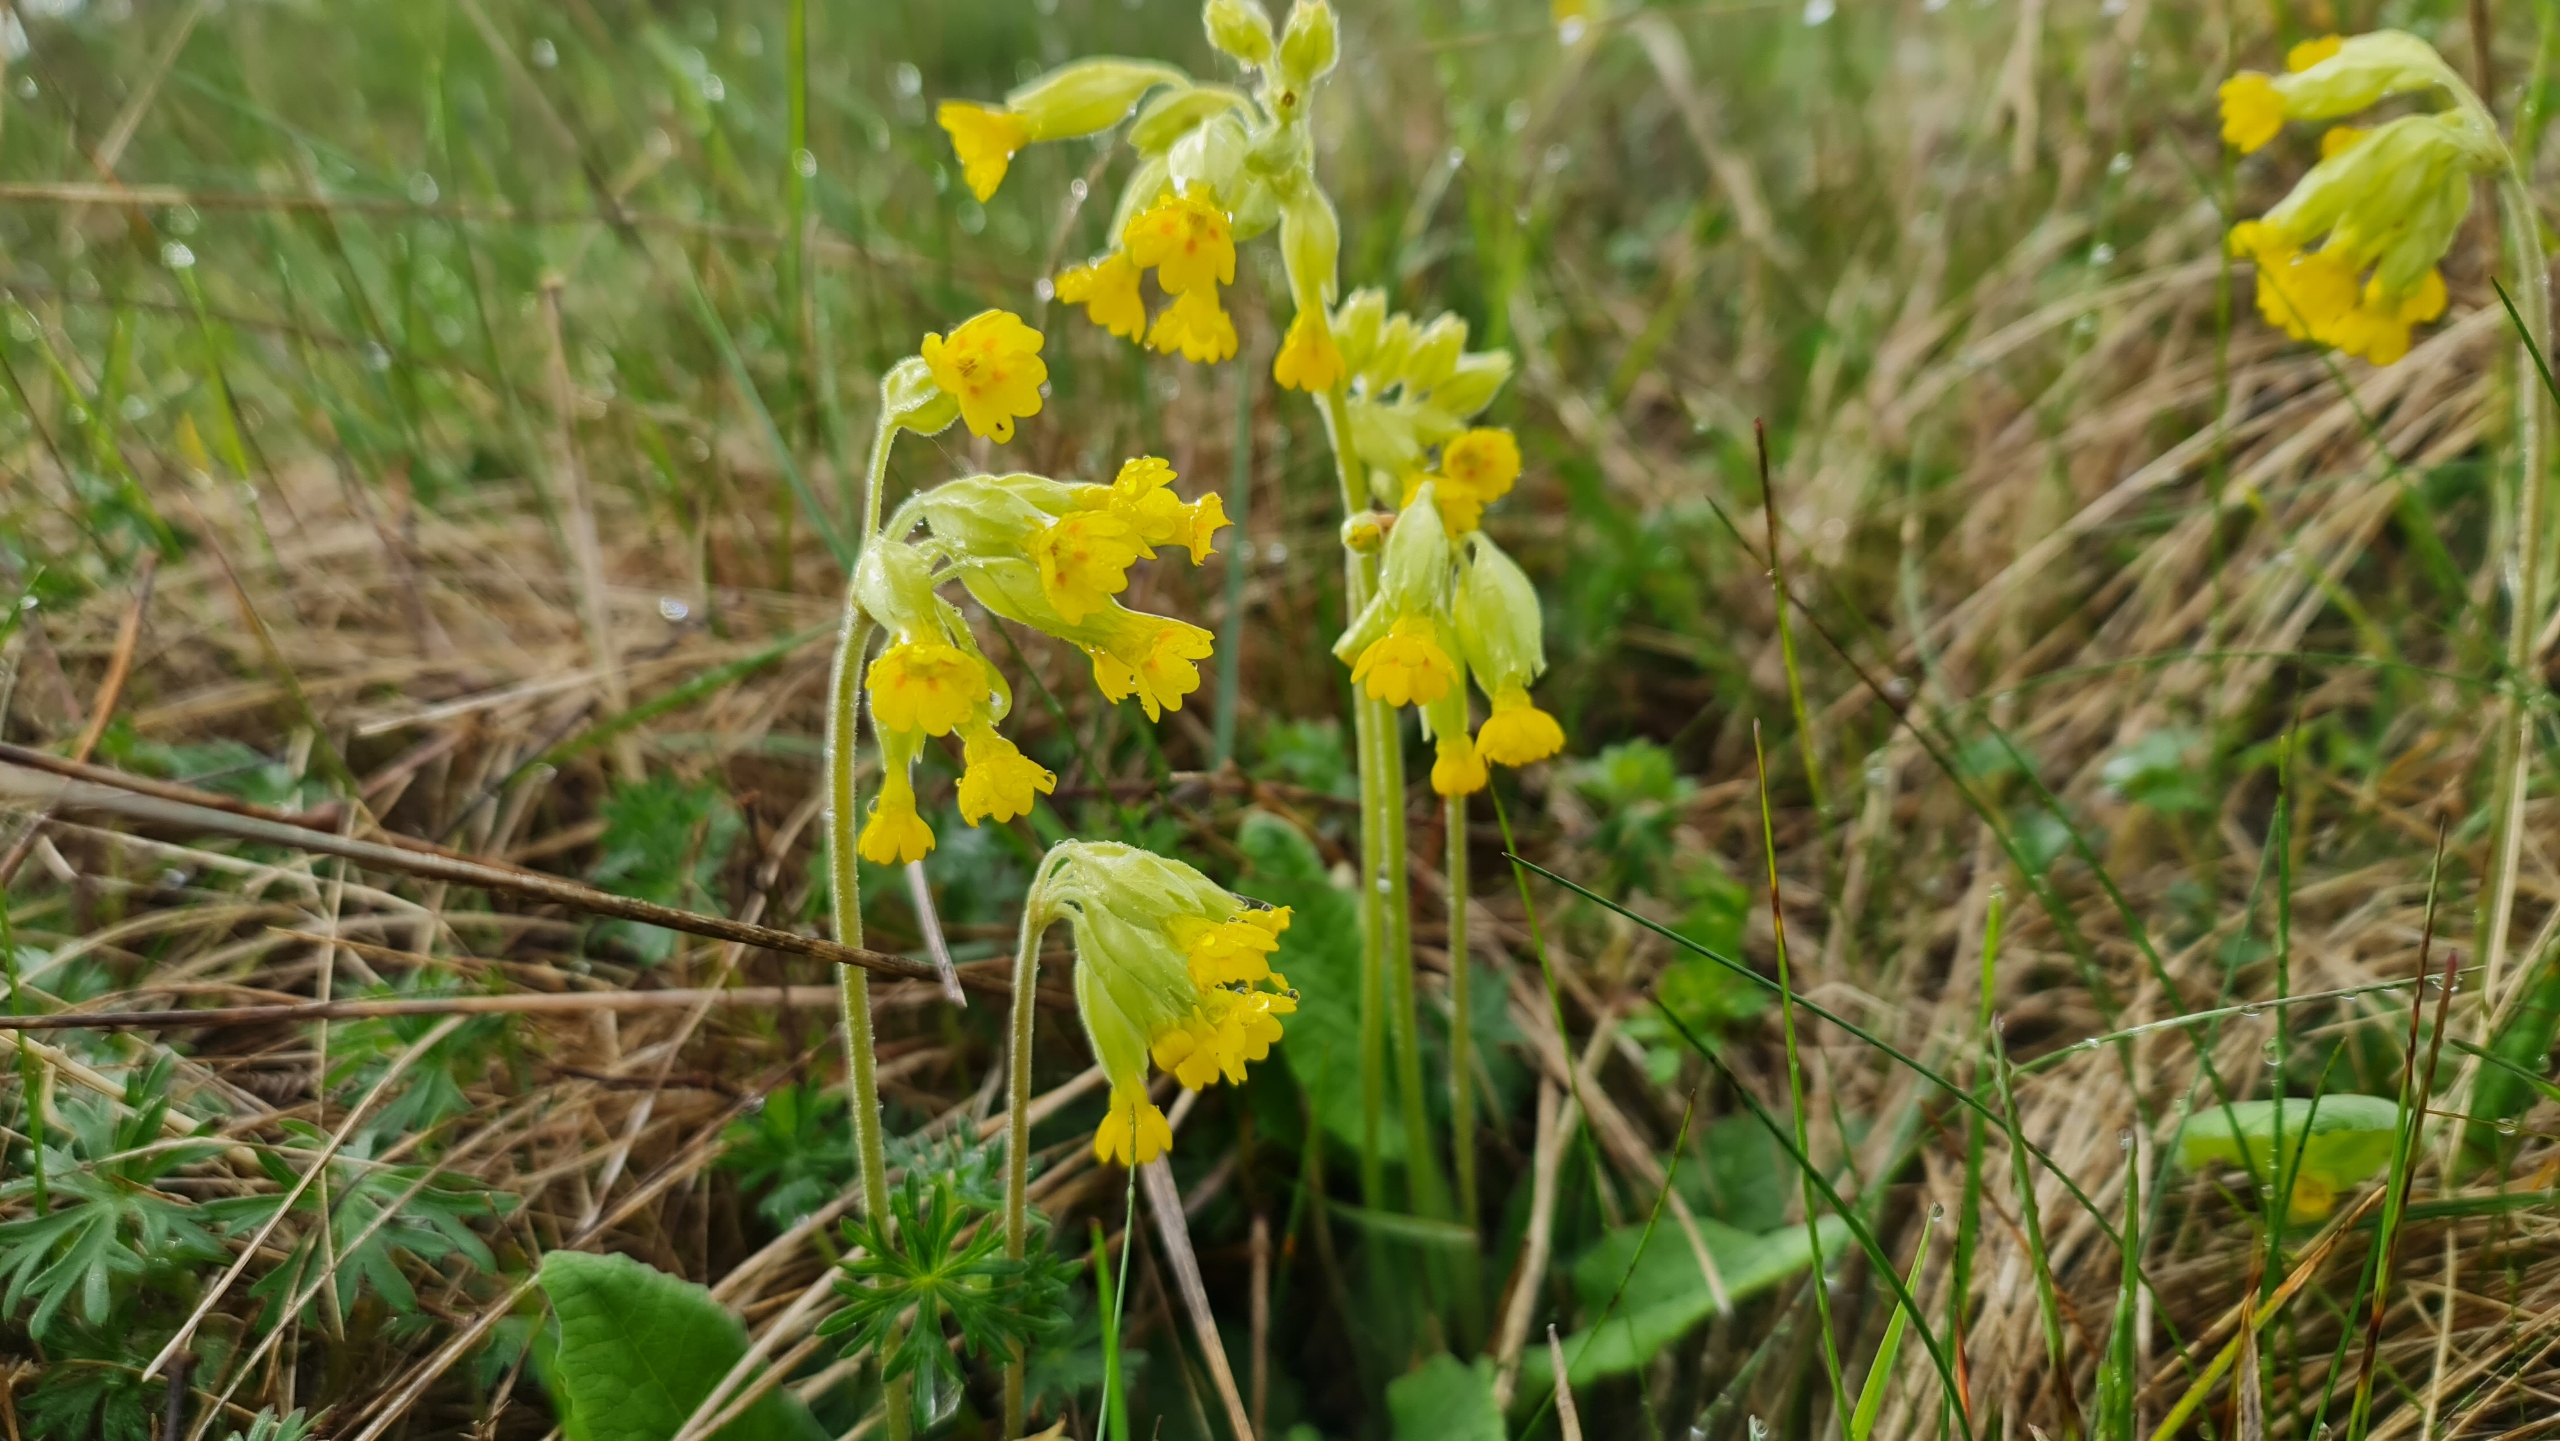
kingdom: Plantae
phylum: Tracheophyta
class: Magnoliopsida
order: Ericales
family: Primulaceae
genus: Primula
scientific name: Primula veris
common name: Hulkravet kodriver
